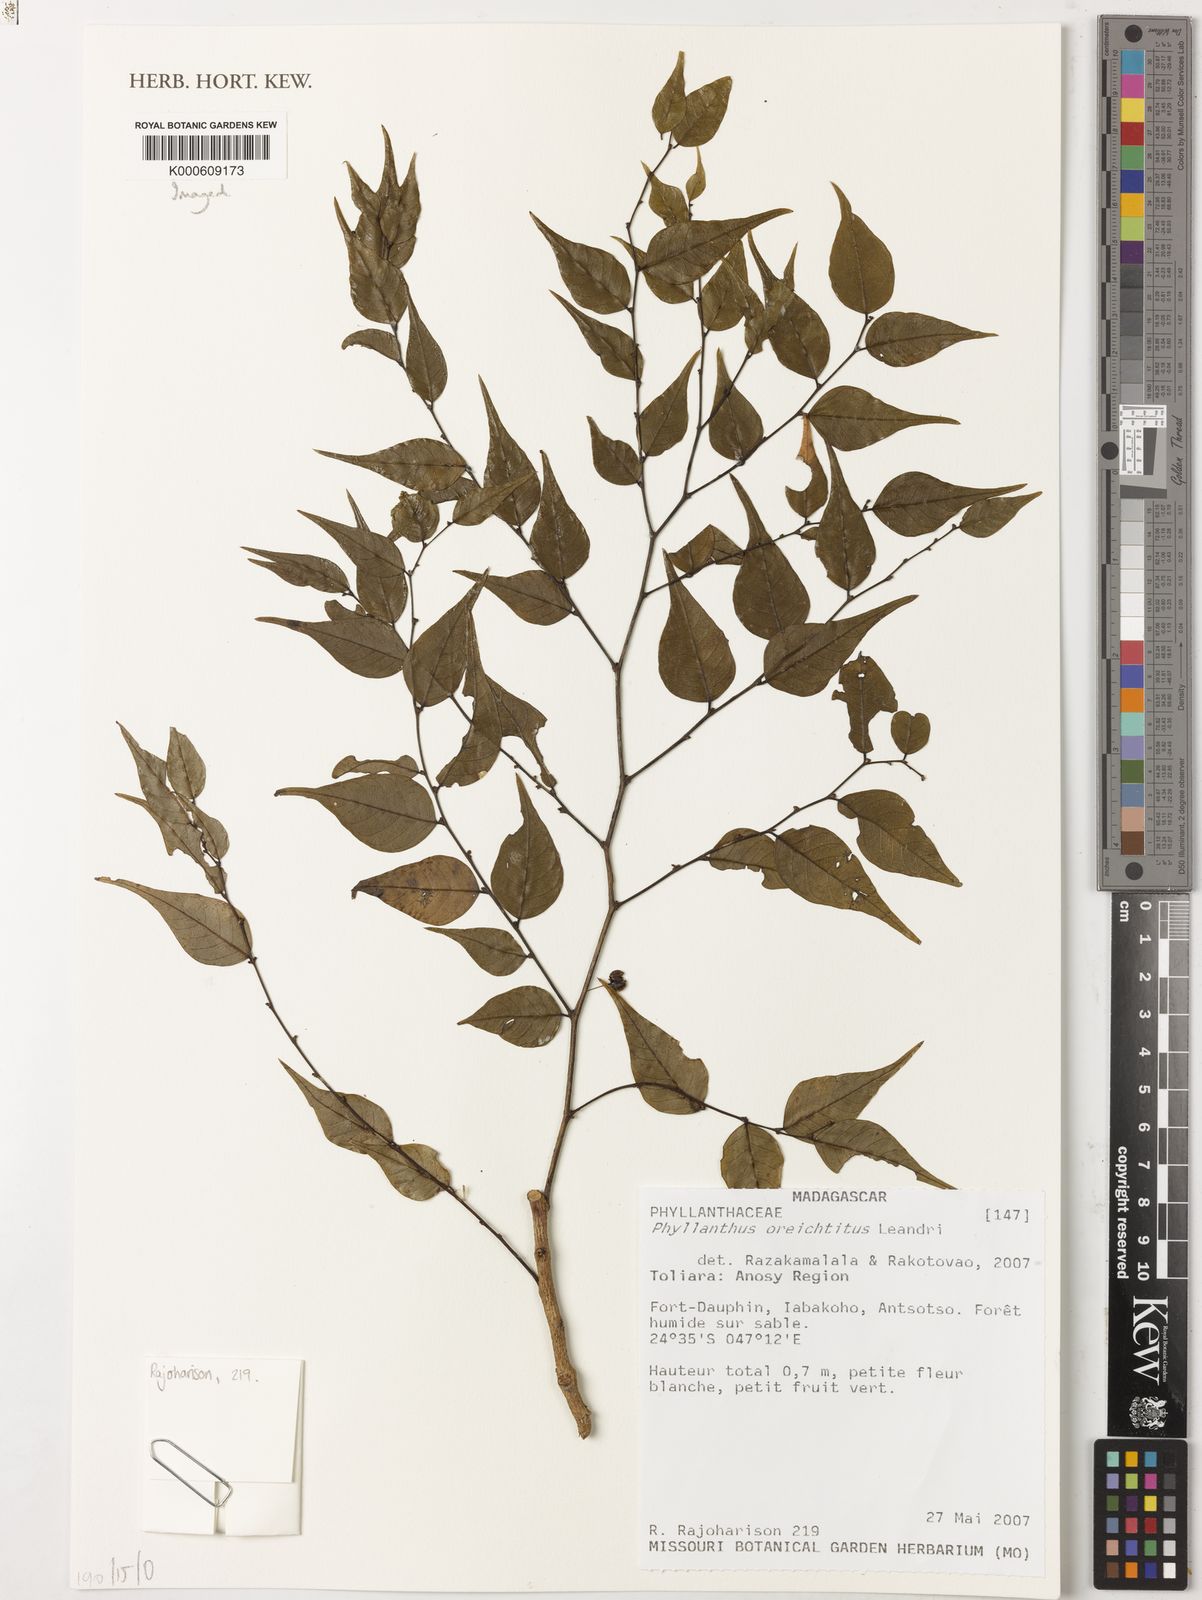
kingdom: Plantae
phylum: Tracheophyta
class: Magnoliopsida
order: Malpighiales
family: Phyllanthaceae
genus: Phyllanthus
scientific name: Phyllanthus oreichtitus
